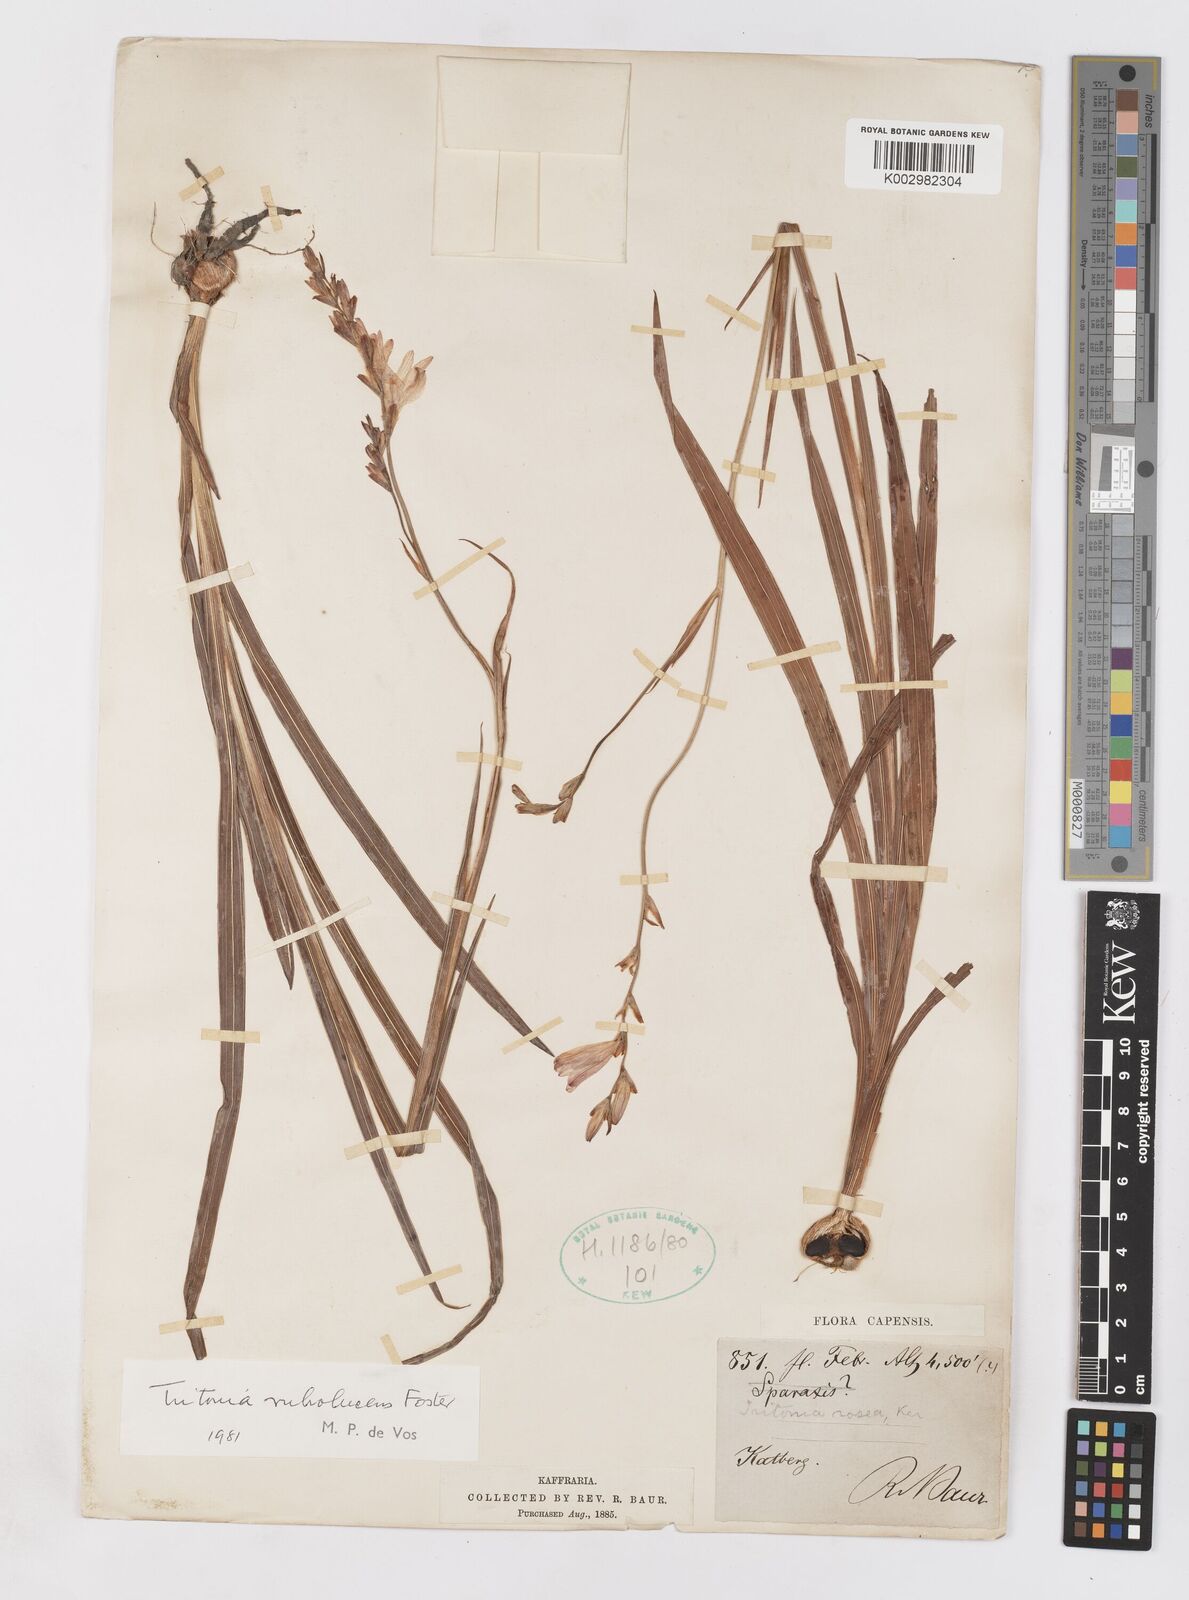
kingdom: Plantae
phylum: Tracheophyta
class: Liliopsida
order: Asparagales
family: Iridaceae
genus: Tritonia
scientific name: Tritonia disticha
